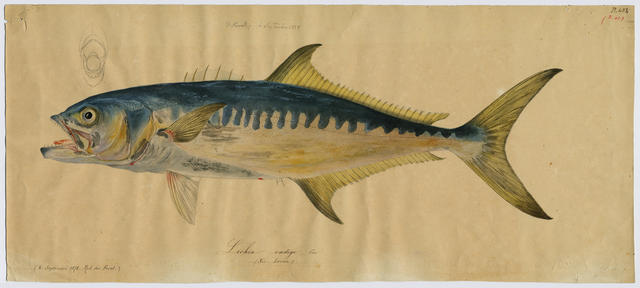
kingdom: Animalia
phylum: Chordata
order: Perciformes
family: Carangidae
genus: Campogramma
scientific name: Campogramma glaycos
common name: Vadigo
